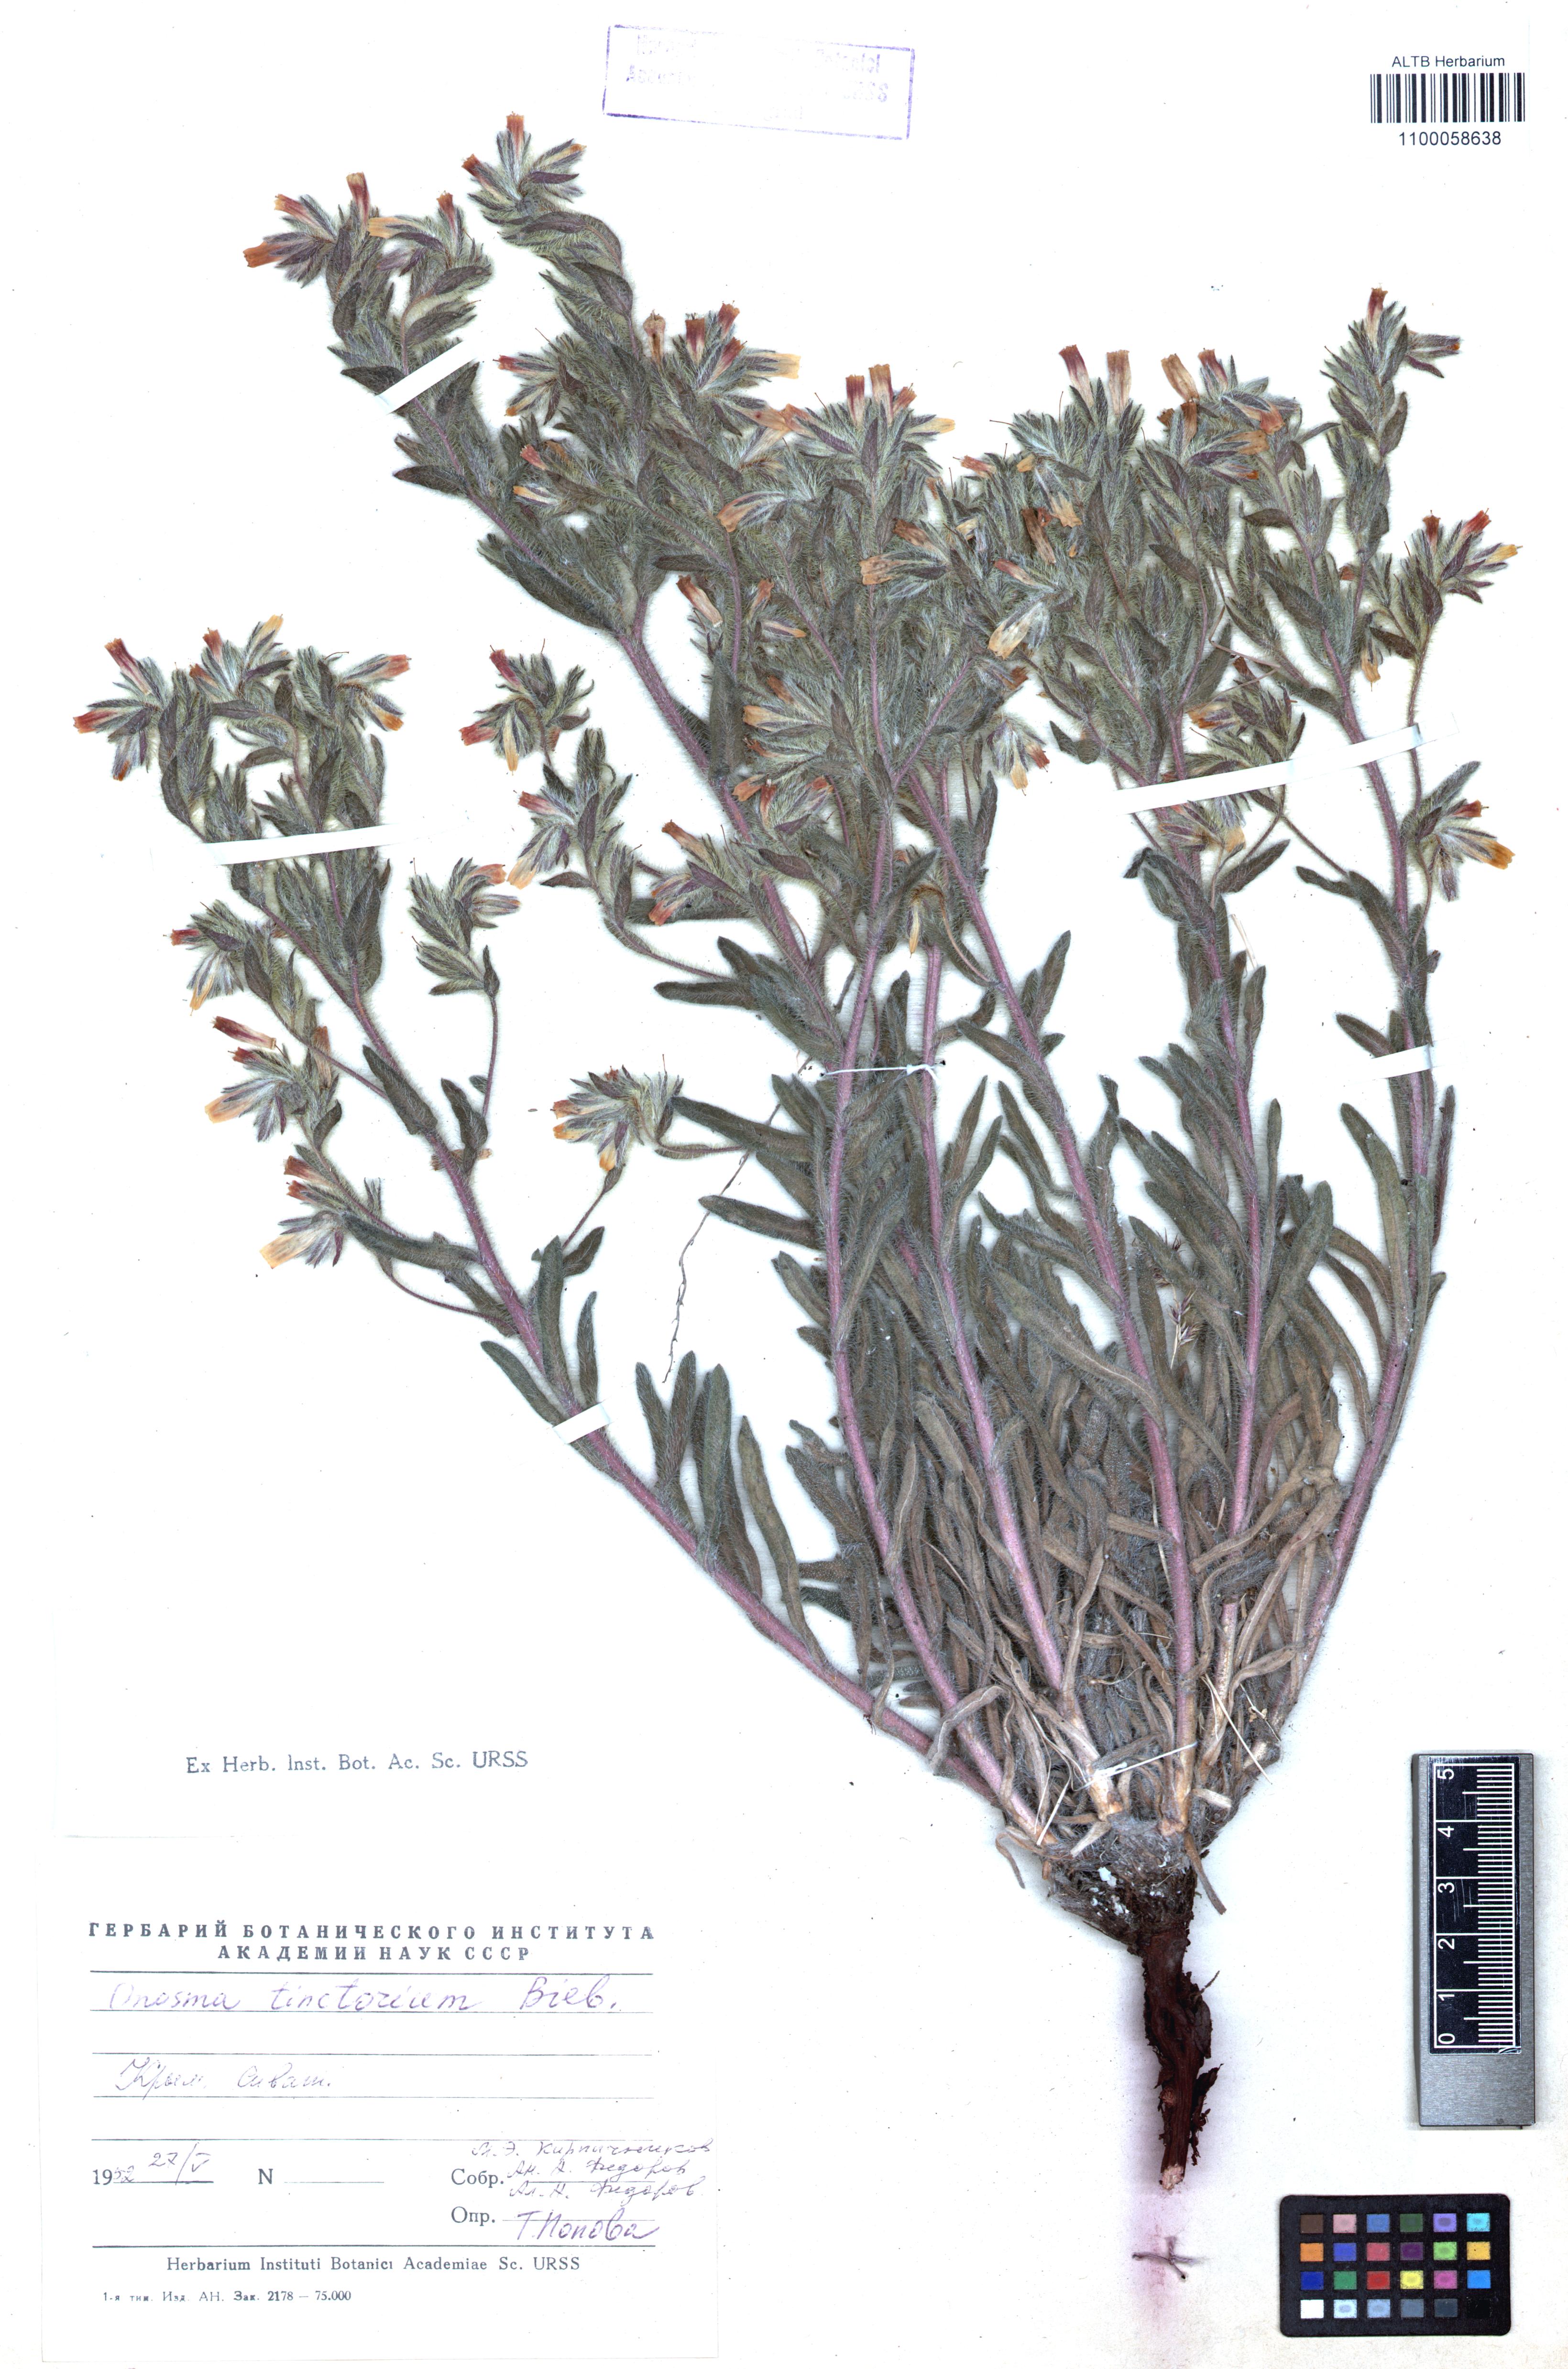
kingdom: Plantae
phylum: Tracheophyta
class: Magnoliopsida
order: Boraginales
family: Boraginaceae
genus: Onosma
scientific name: Onosma tinctoria
